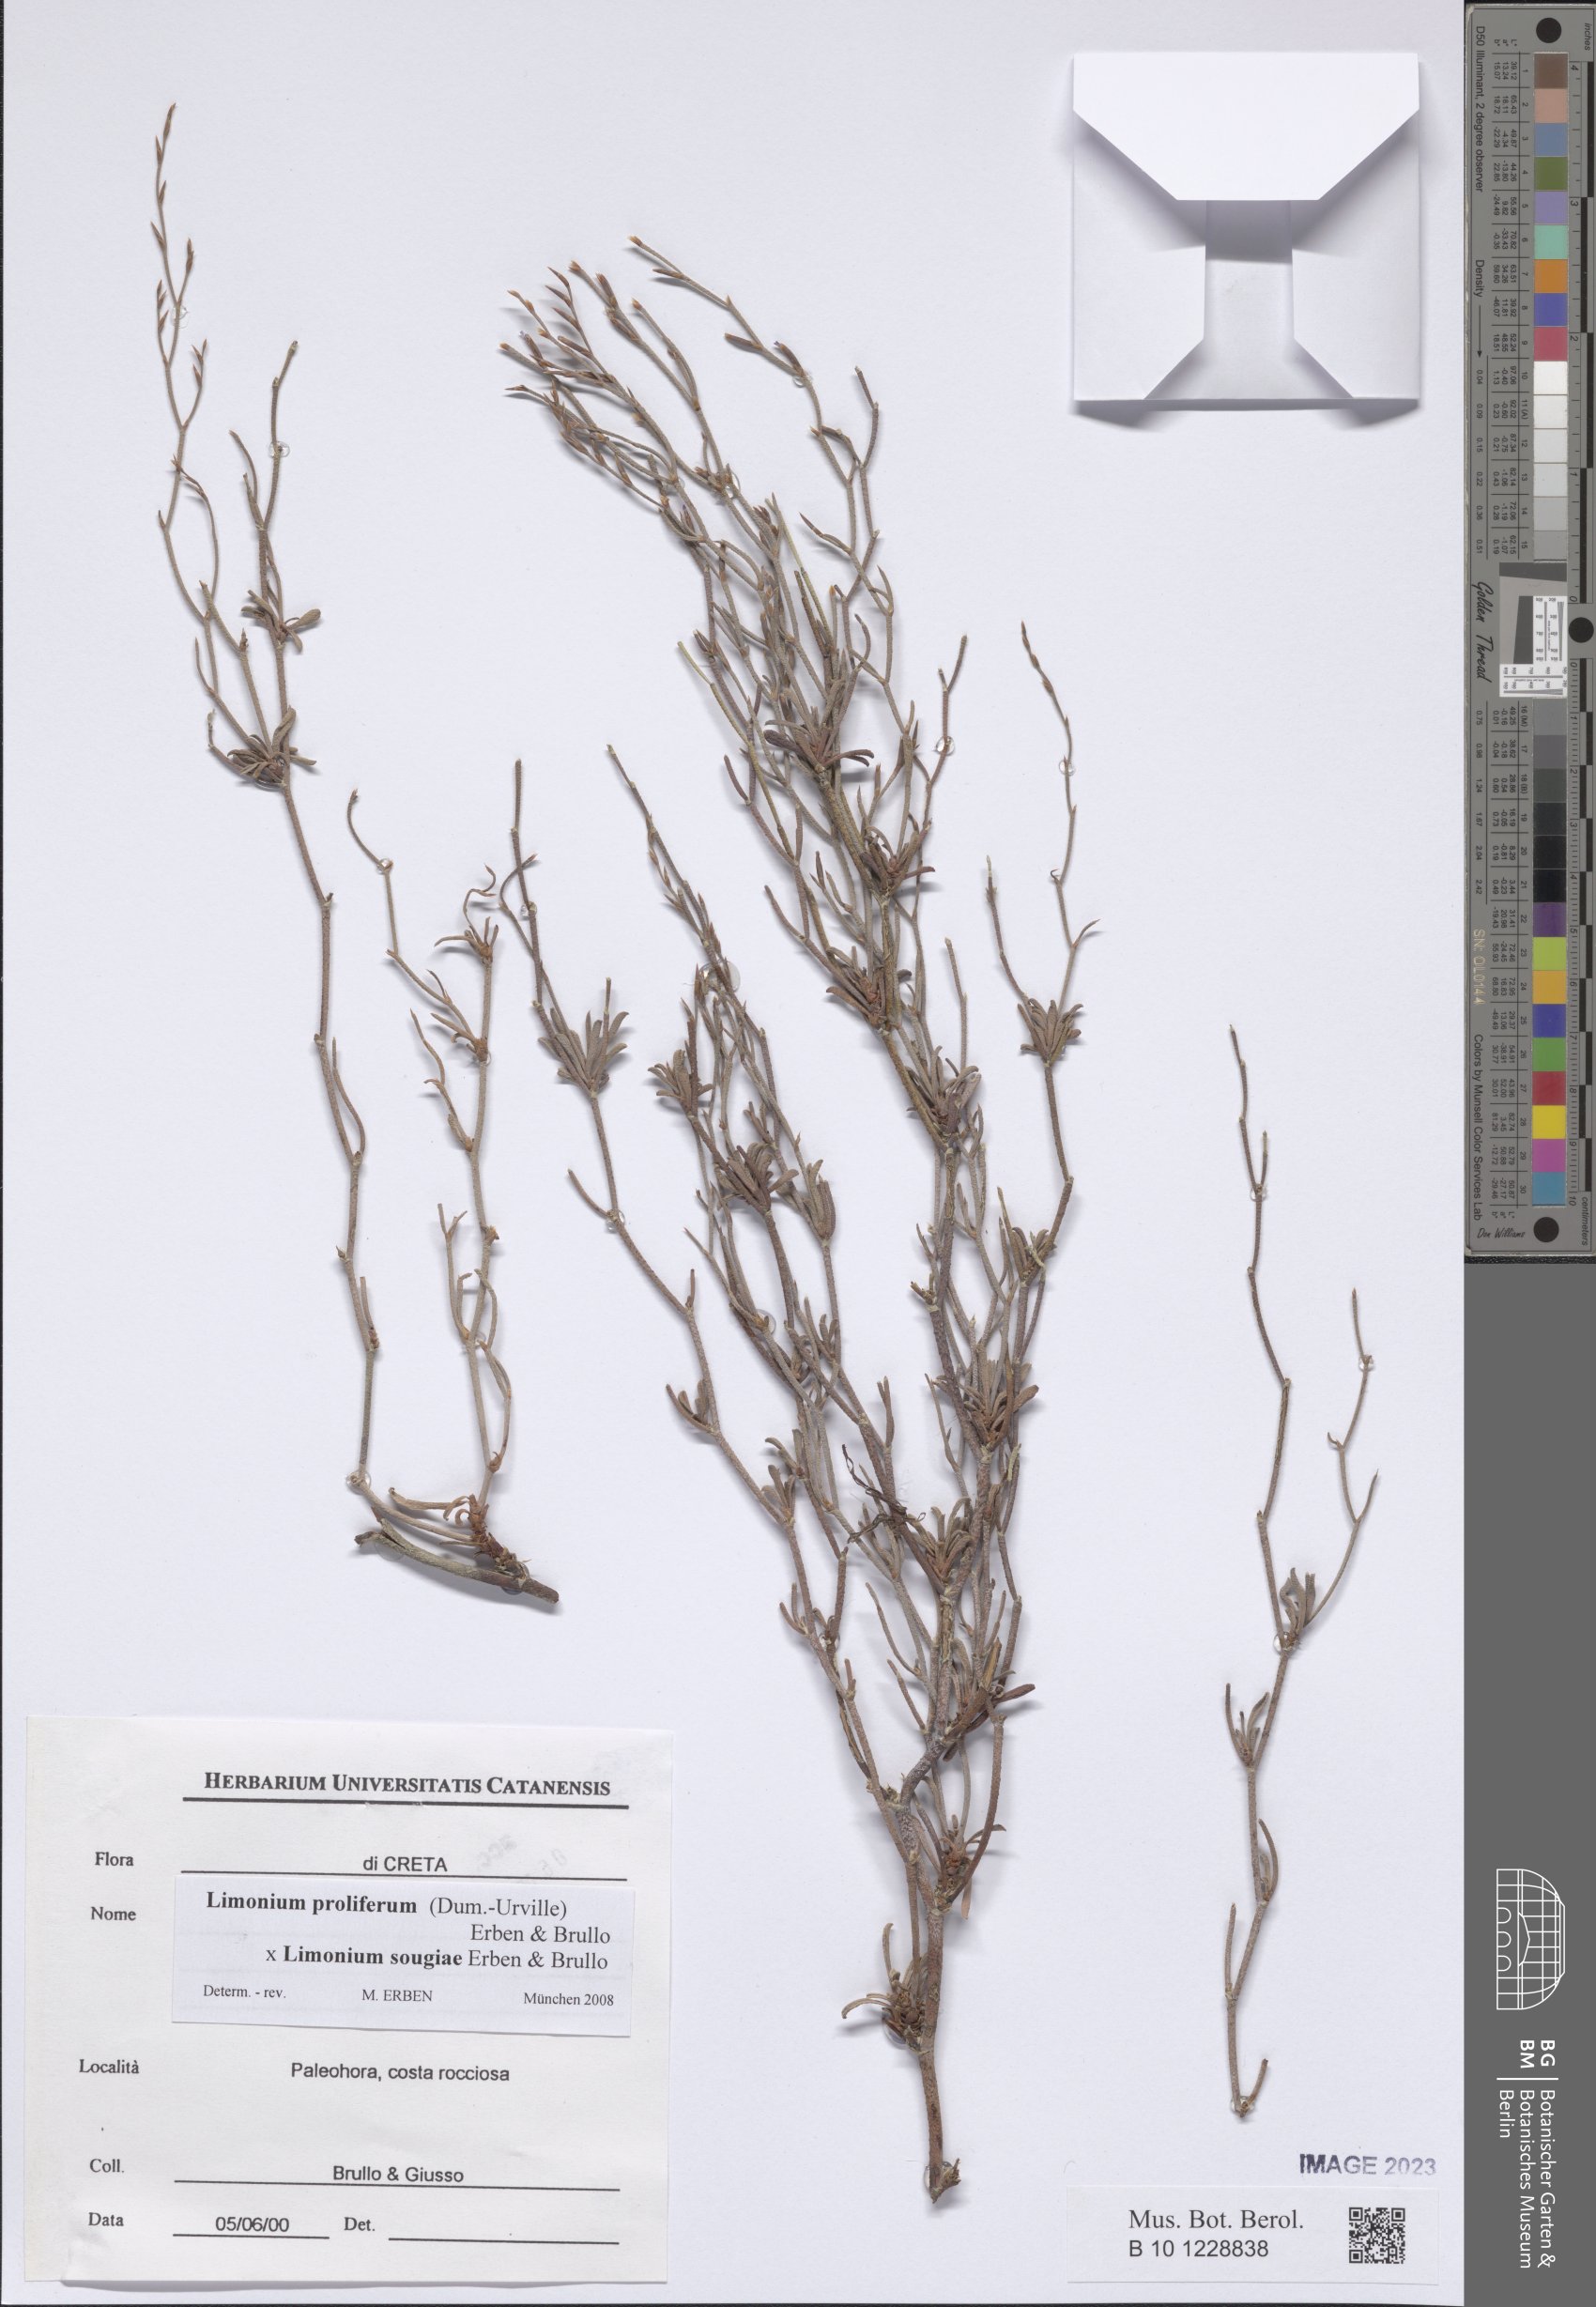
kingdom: Plantae
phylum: Tracheophyta
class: Magnoliopsida
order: Caryophyllales
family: Plumbaginaceae
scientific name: Plumbaginaceae
